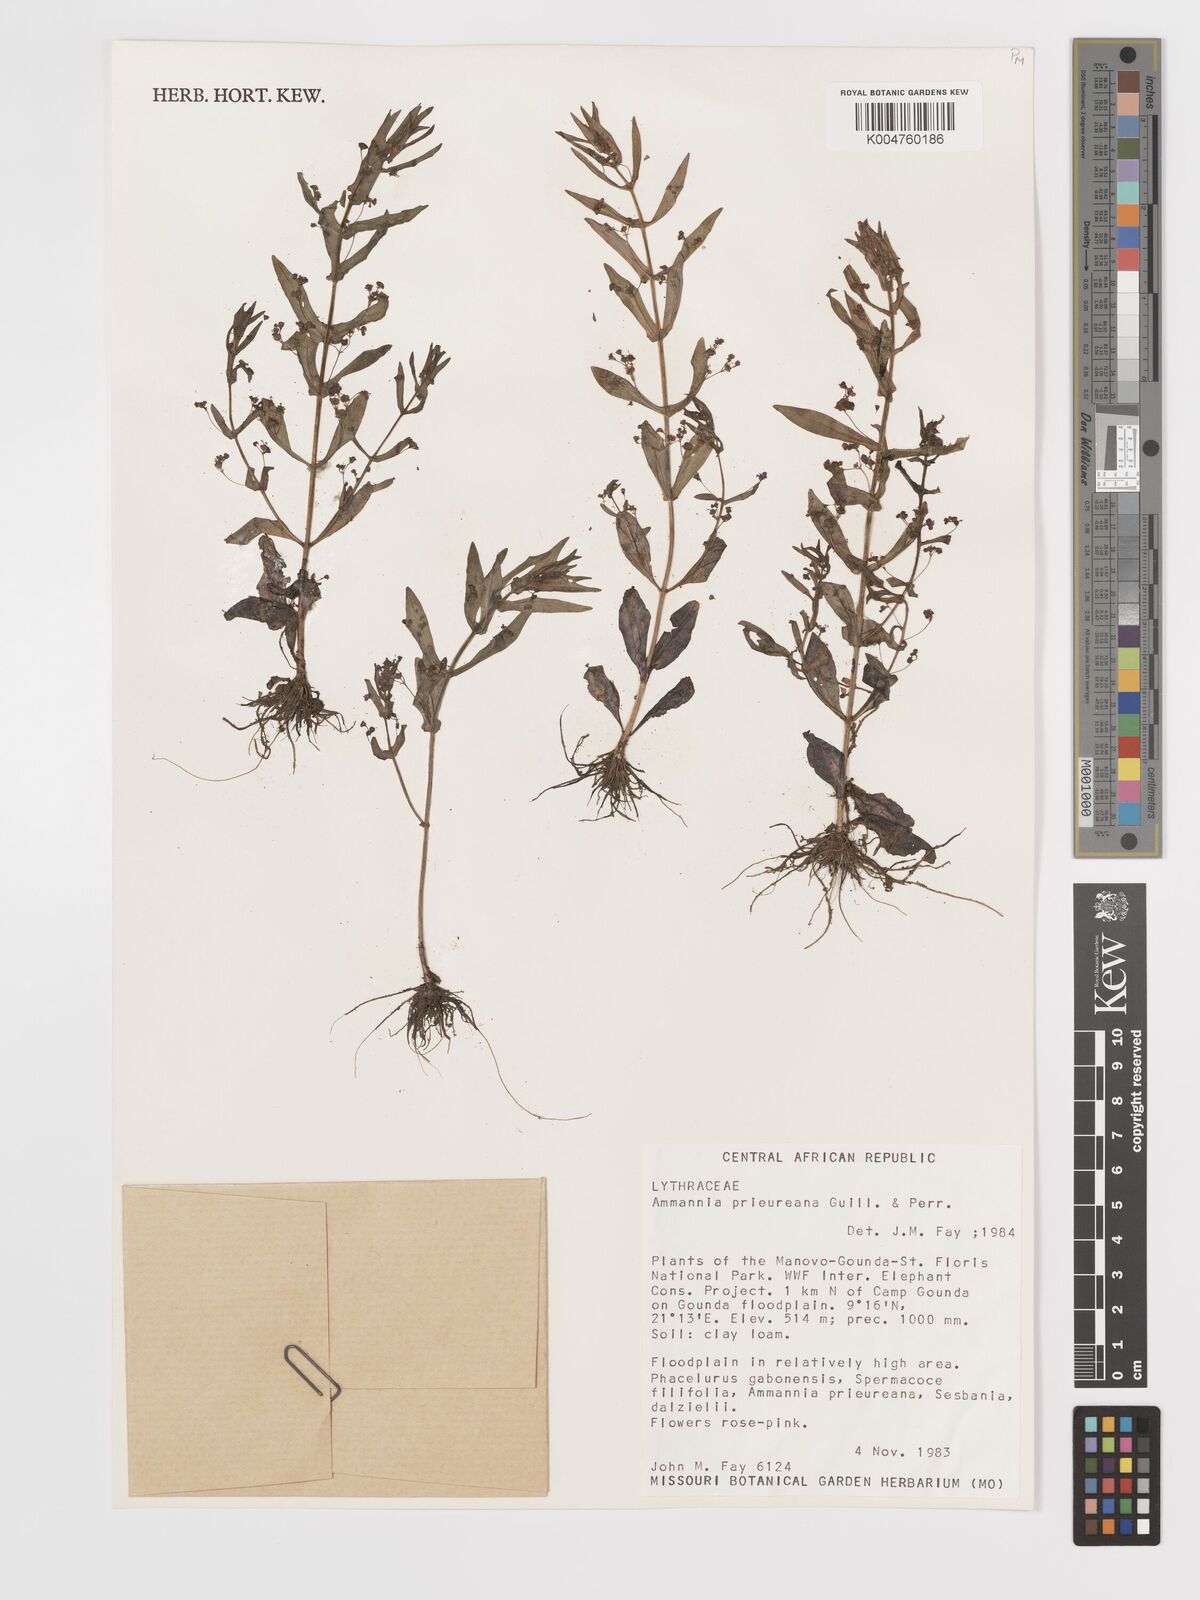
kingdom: Plantae
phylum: Tracheophyta
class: Magnoliopsida
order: Myrtales
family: Lythraceae
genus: Ammannia
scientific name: Ammannia prieuriana
